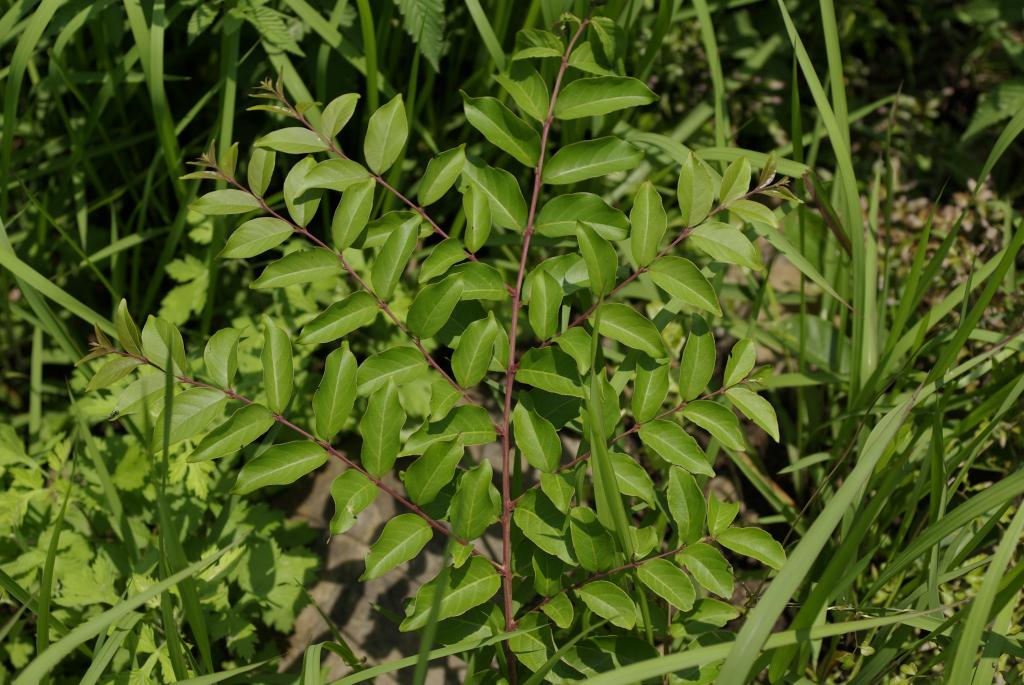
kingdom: Plantae
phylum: Tracheophyta
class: Magnoliopsida
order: Myrtales
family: Lythraceae
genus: Lagerstroemia
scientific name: Lagerstroemia subcostata
